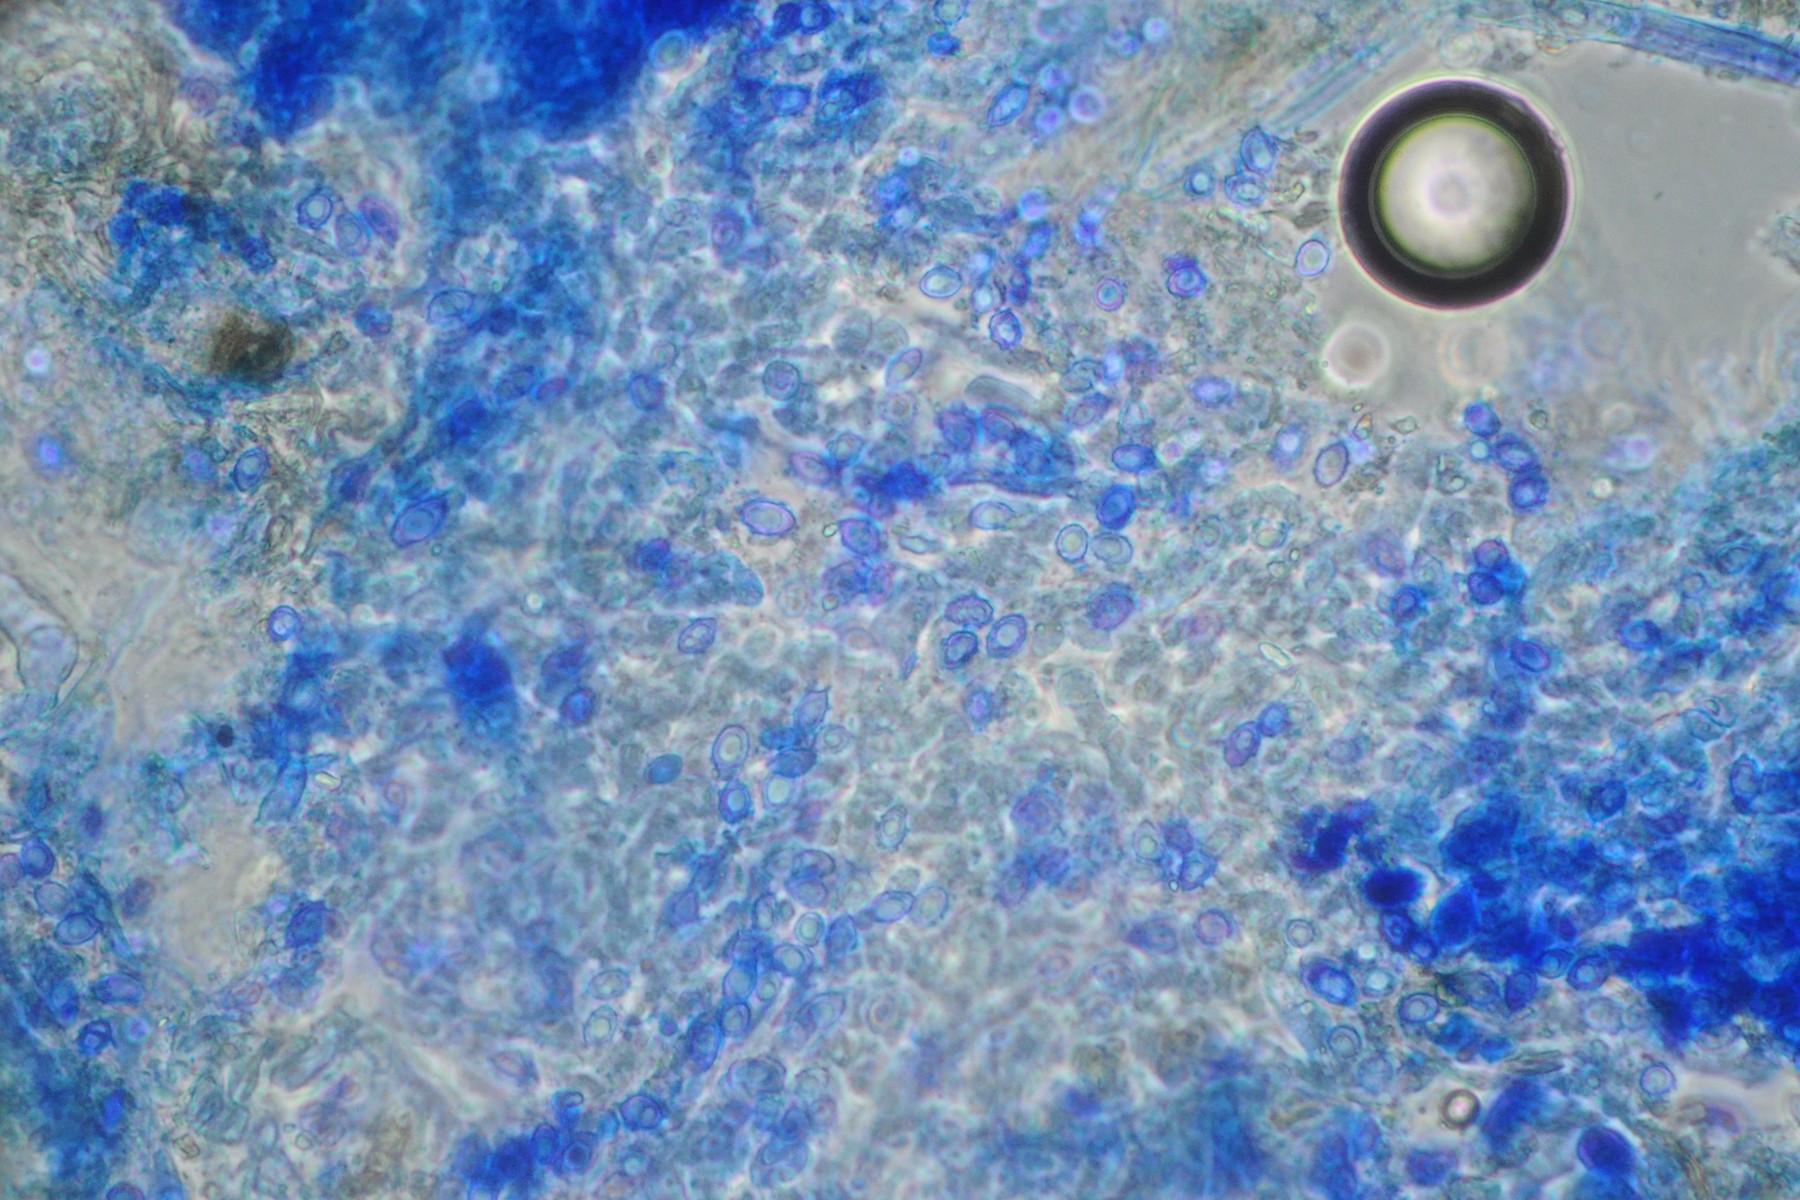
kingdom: Fungi
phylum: Basidiomycota
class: Agaricomycetes
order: Agaricales
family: Stephanosporaceae
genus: Lindtneria
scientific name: Lindtneria panphyliensis
